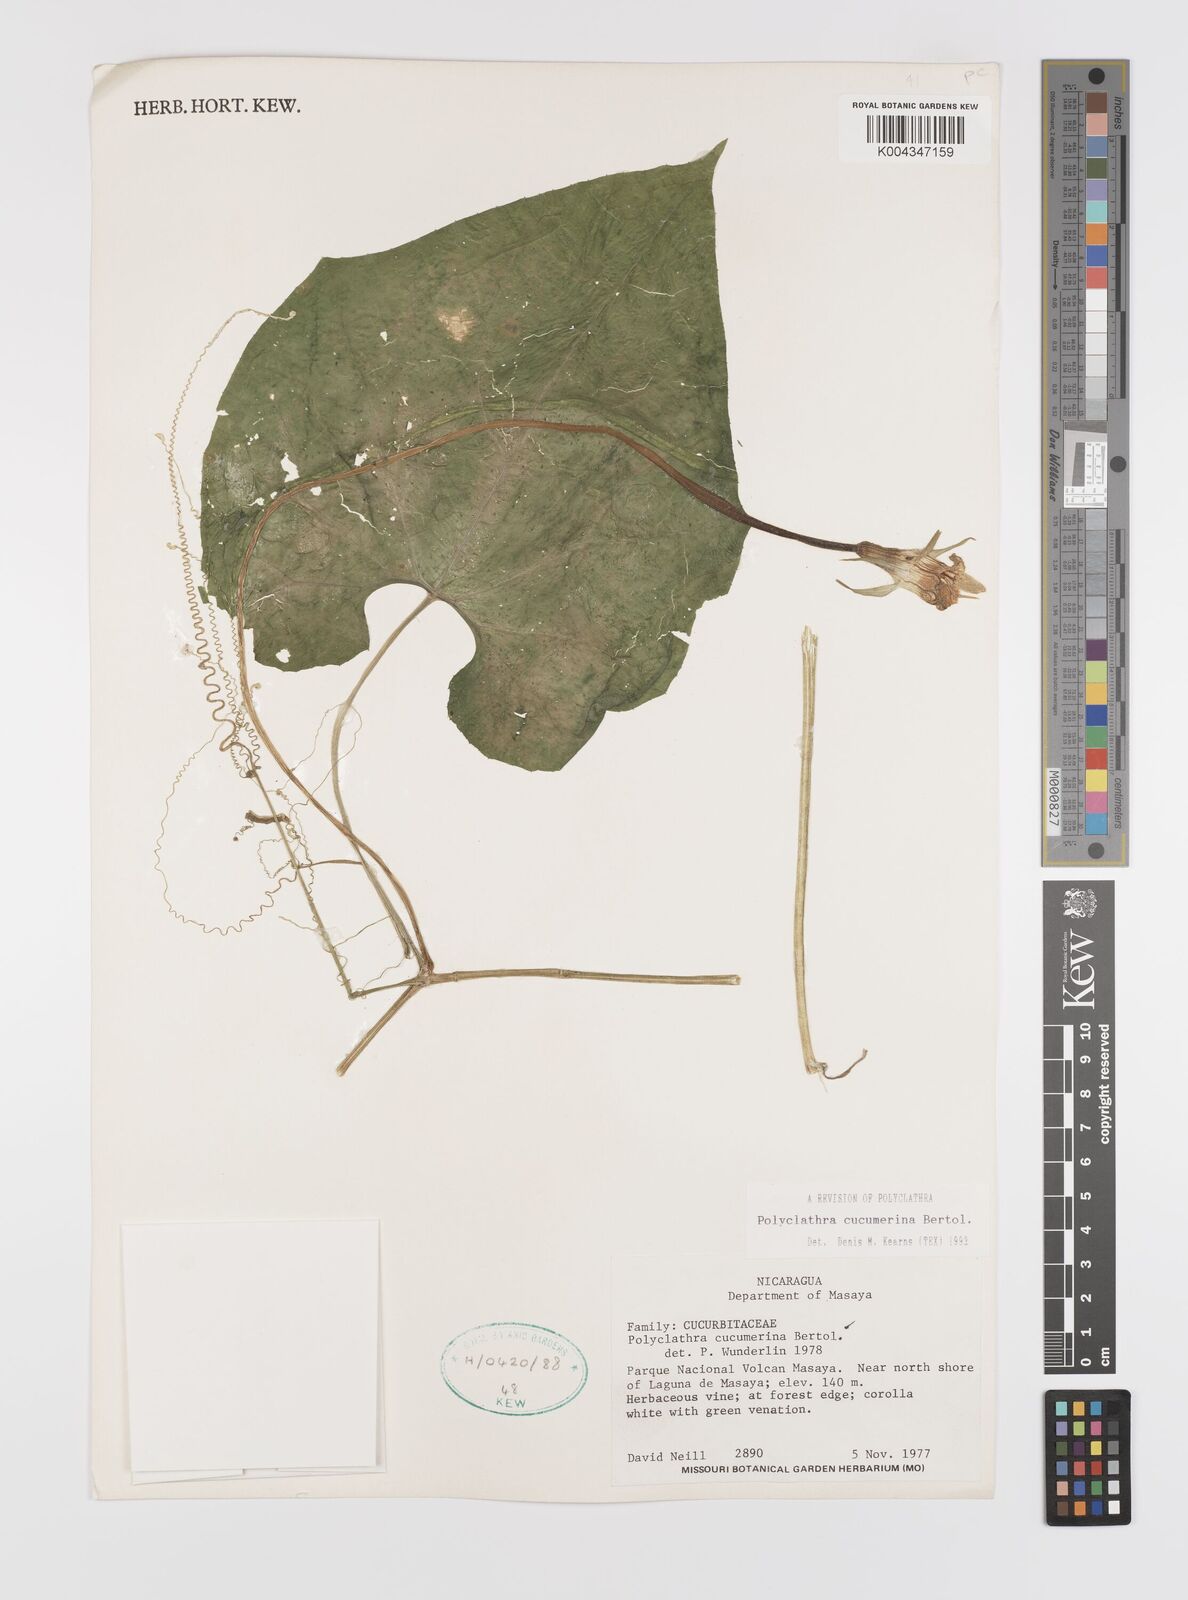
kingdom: Plantae
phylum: Tracheophyta
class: Magnoliopsida
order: Cucurbitales
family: Cucurbitaceae
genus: Polyclathra
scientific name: Polyclathra cucumerina
